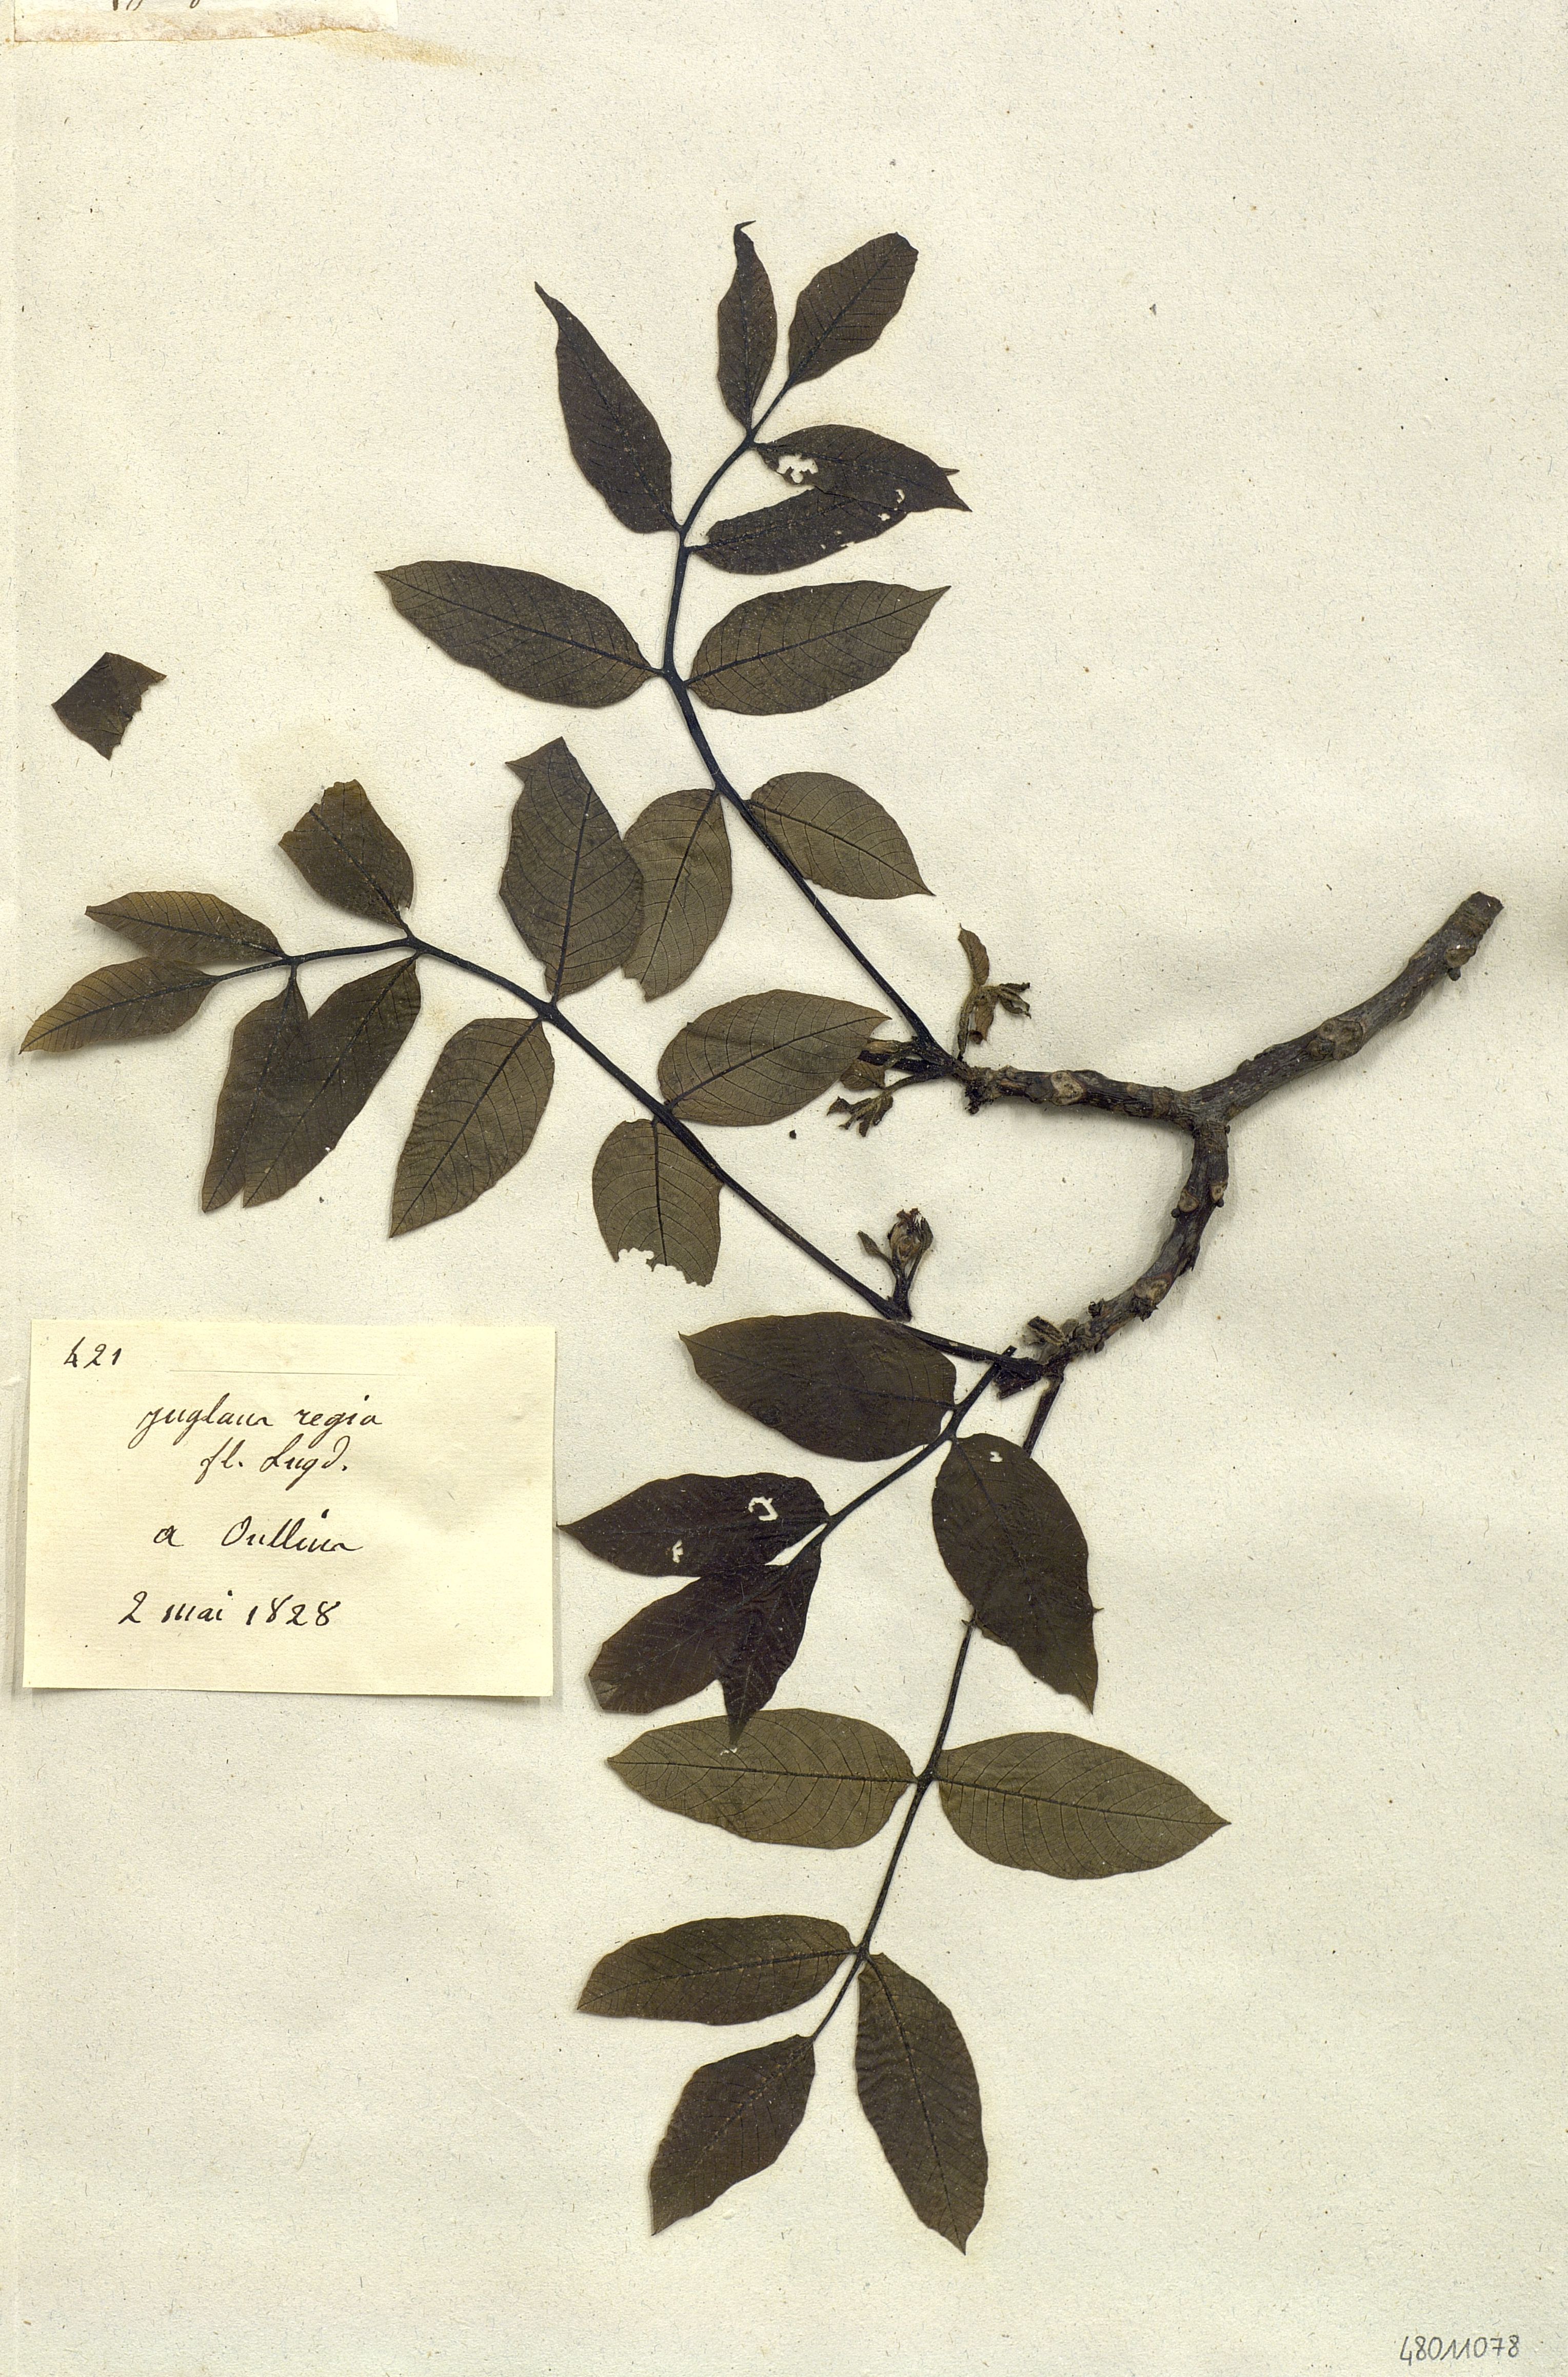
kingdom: Plantae
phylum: Tracheophyta
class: Magnoliopsida
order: Fagales
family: Juglandaceae
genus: Juglans
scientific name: Juglans regia
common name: Walnut
